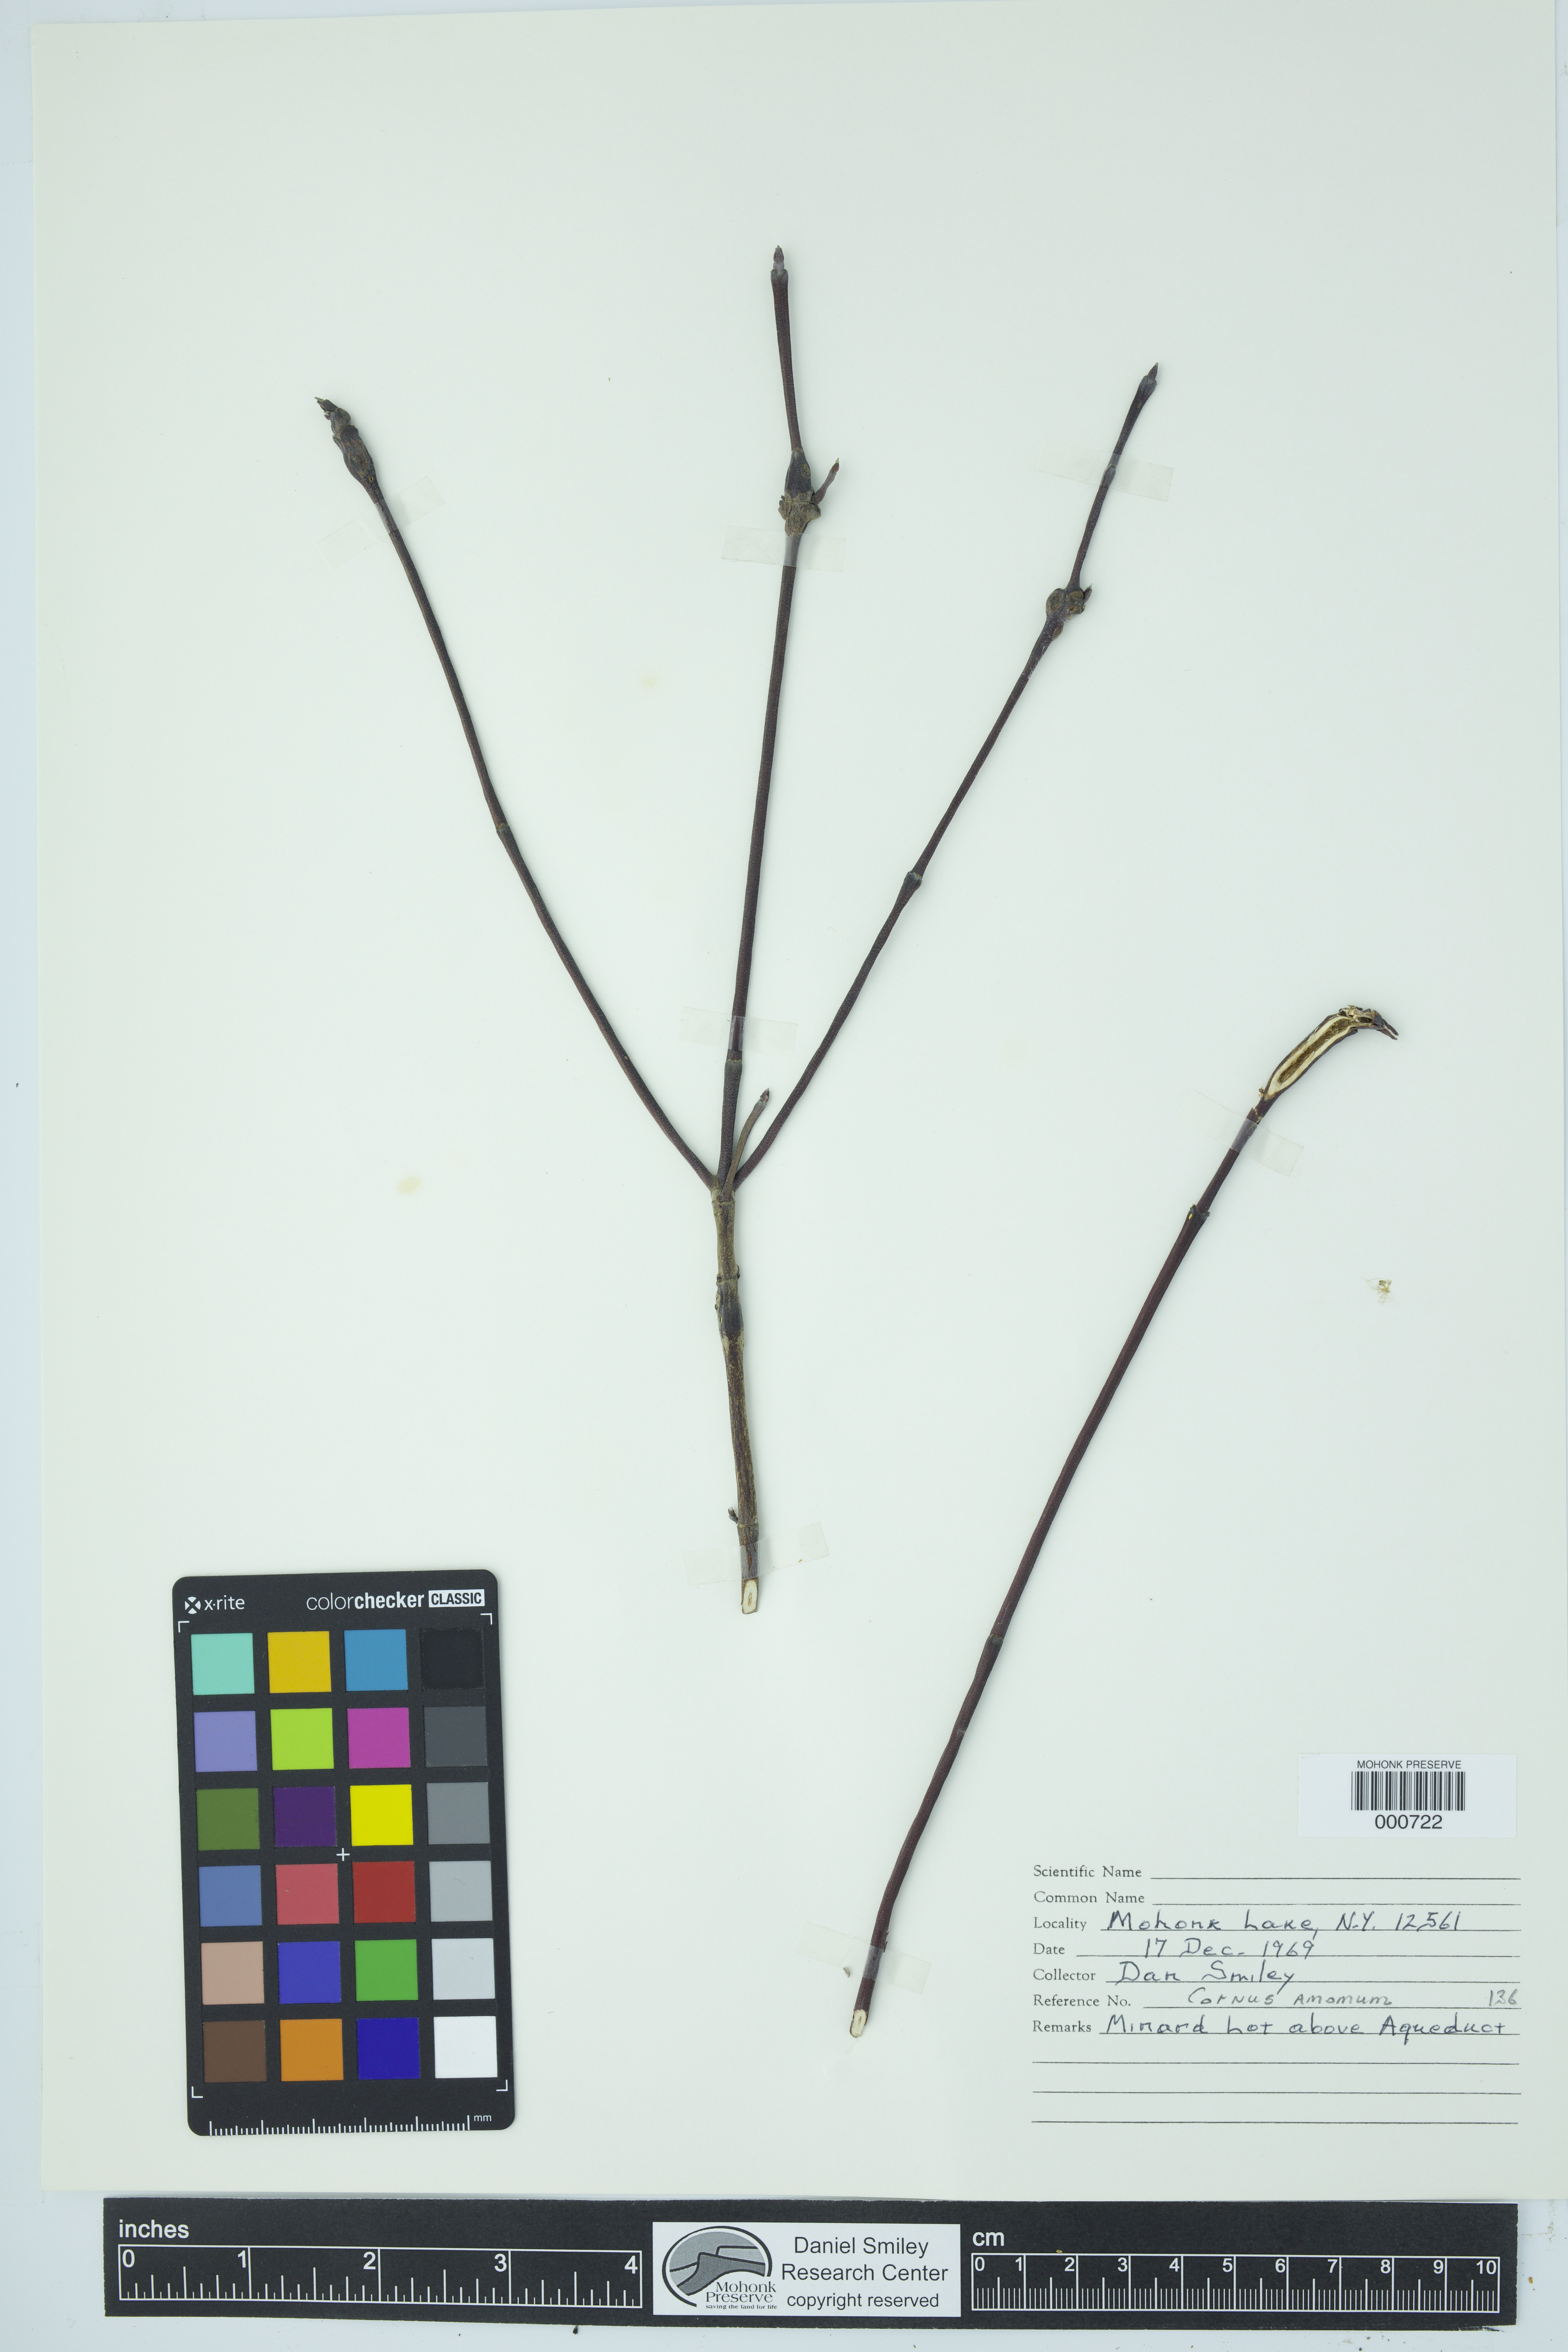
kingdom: Plantae
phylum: Tracheophyta
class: Magnoliopsida
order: Cornales
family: Cornaceae
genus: Cornus
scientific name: Cornus amomum
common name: Silky dogwood
